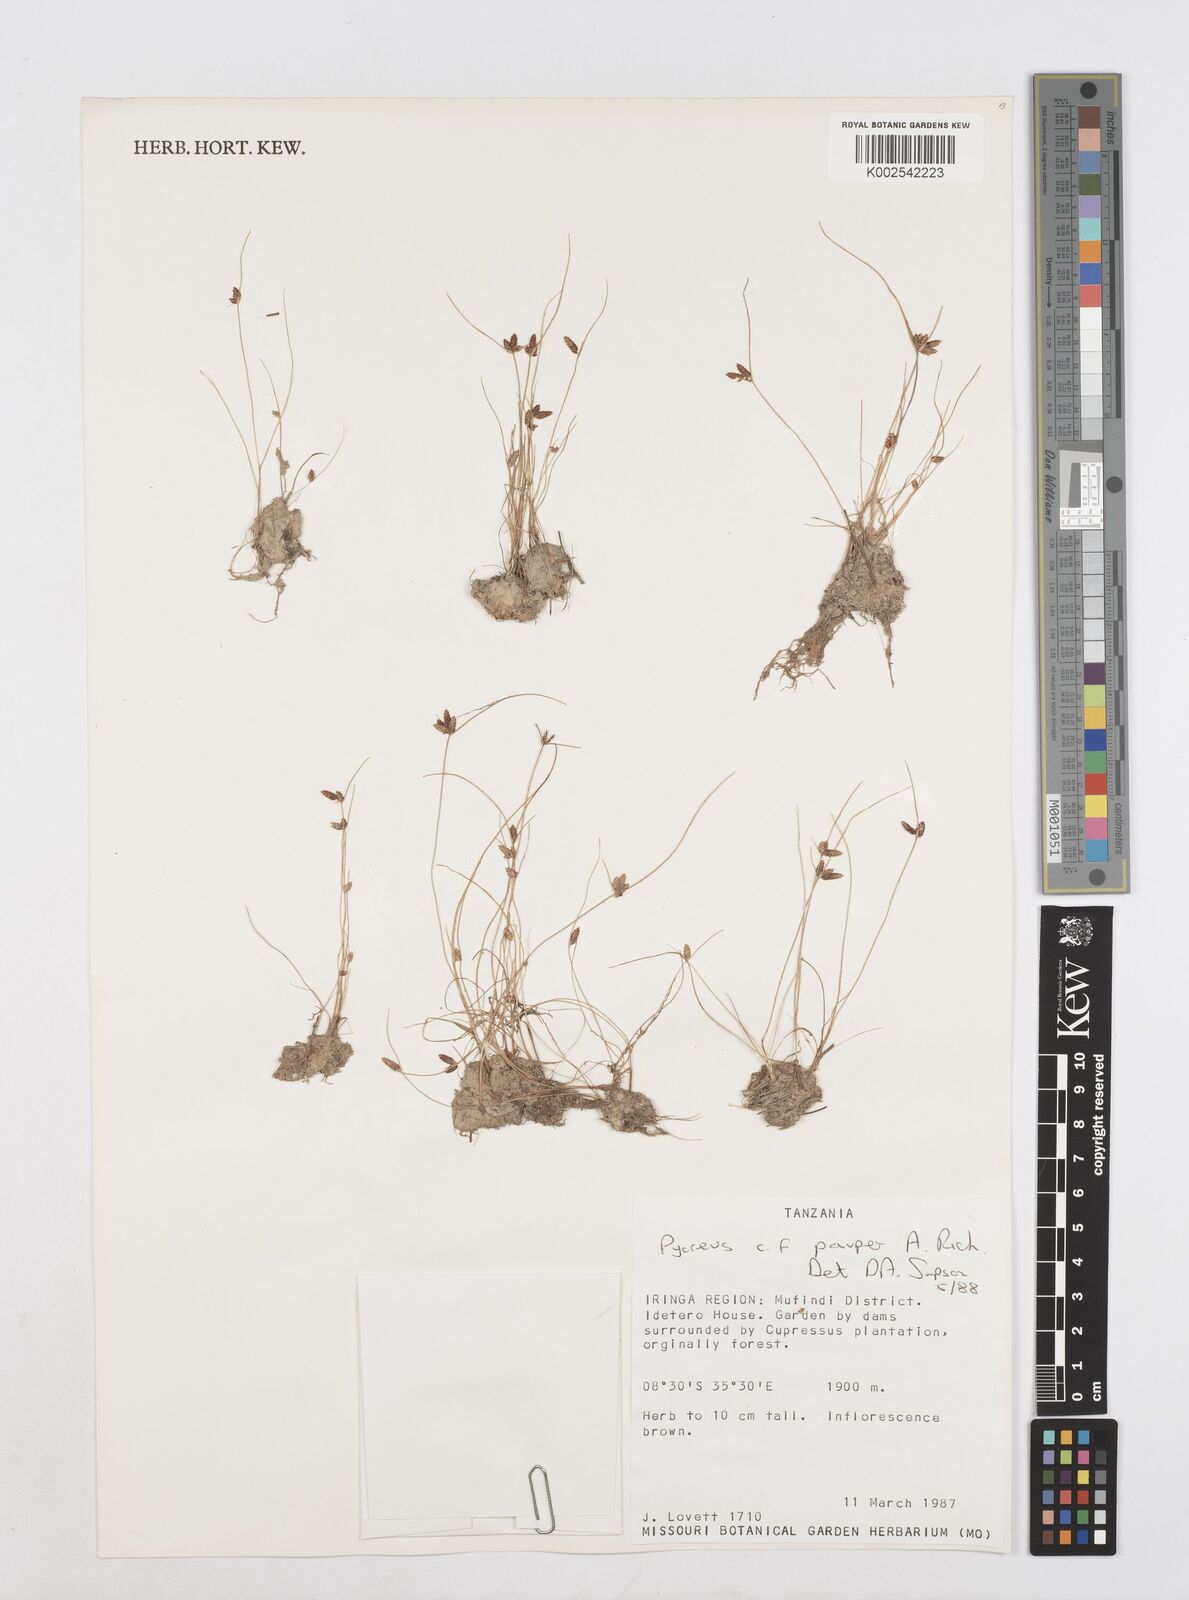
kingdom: Plantae
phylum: Tracheophyta
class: Liliopsida
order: Poales
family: Cyperaceae
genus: Cyperus
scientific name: Cyperus pauper
